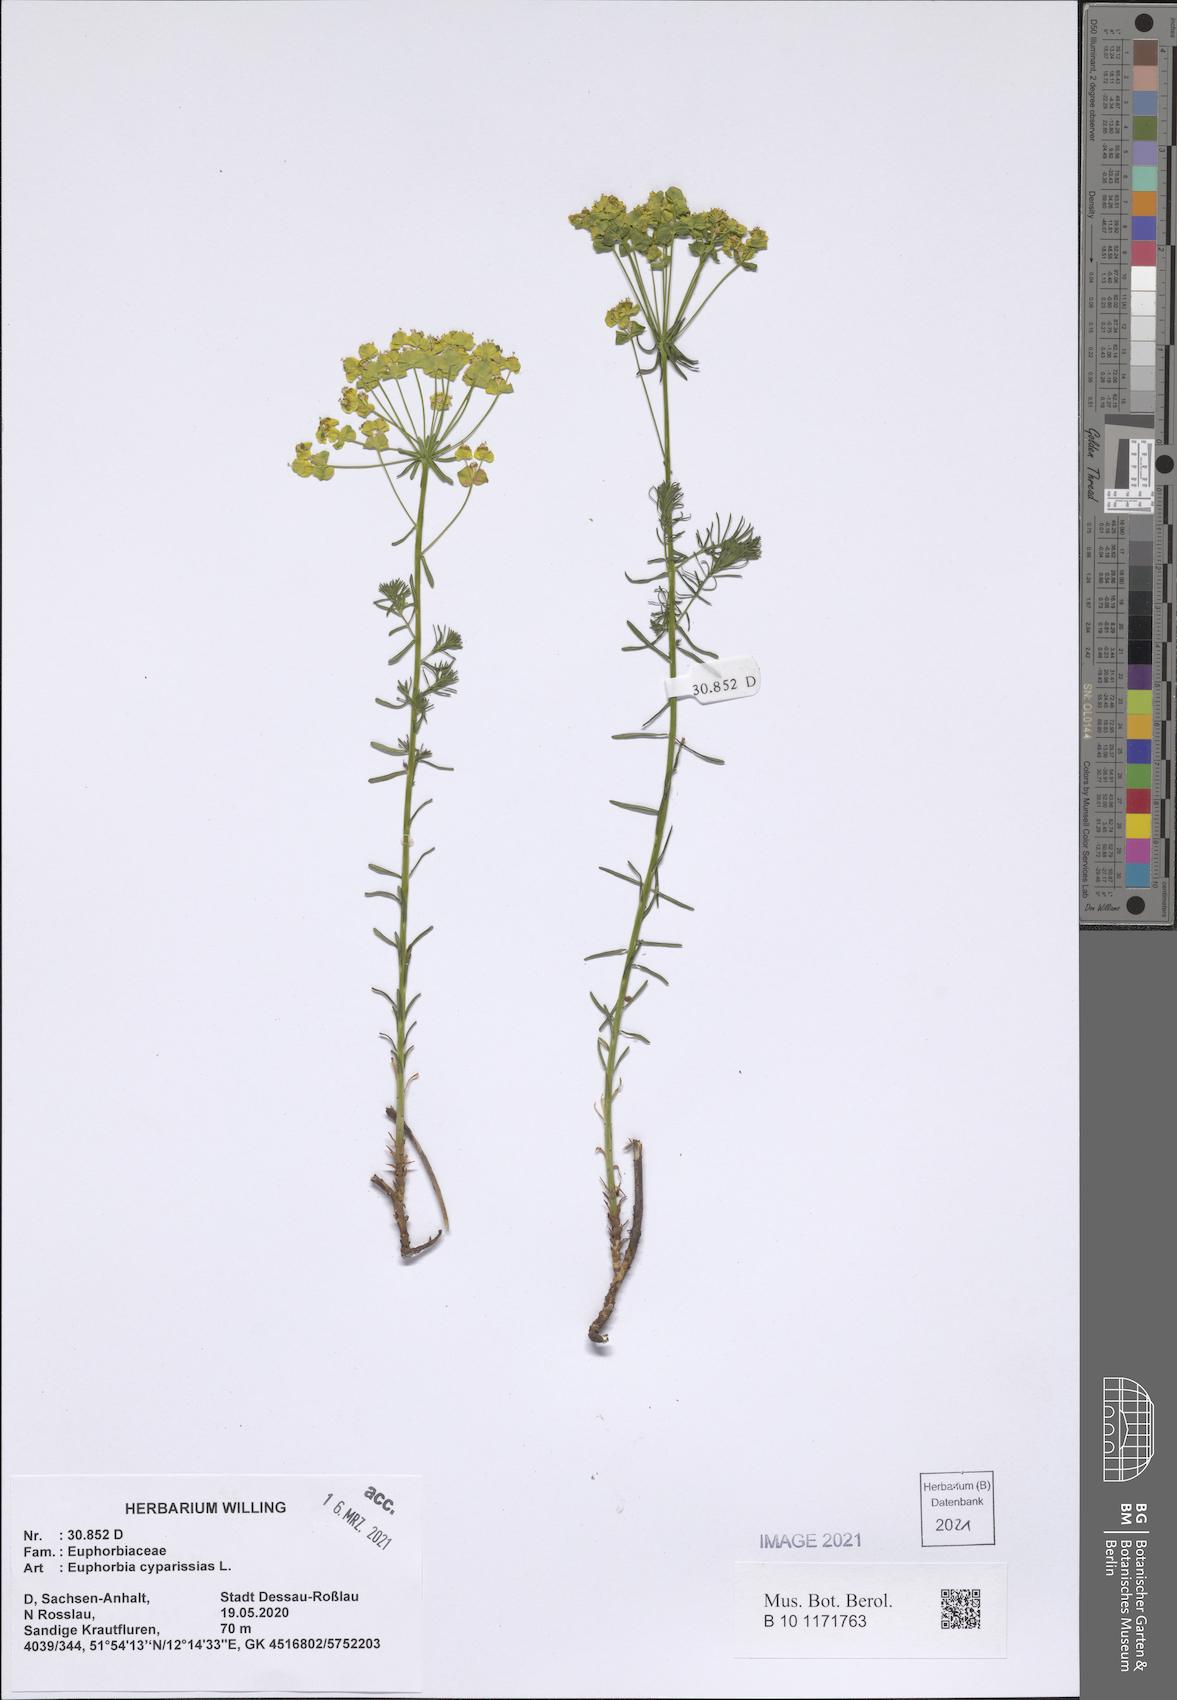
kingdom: Plantae
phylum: Tracheophyta
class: Magnoliopsida
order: Malpighiales
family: Euphorbiaceae
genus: Euphorbia
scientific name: Euphorbia cyparissias
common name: Cypress spurge
